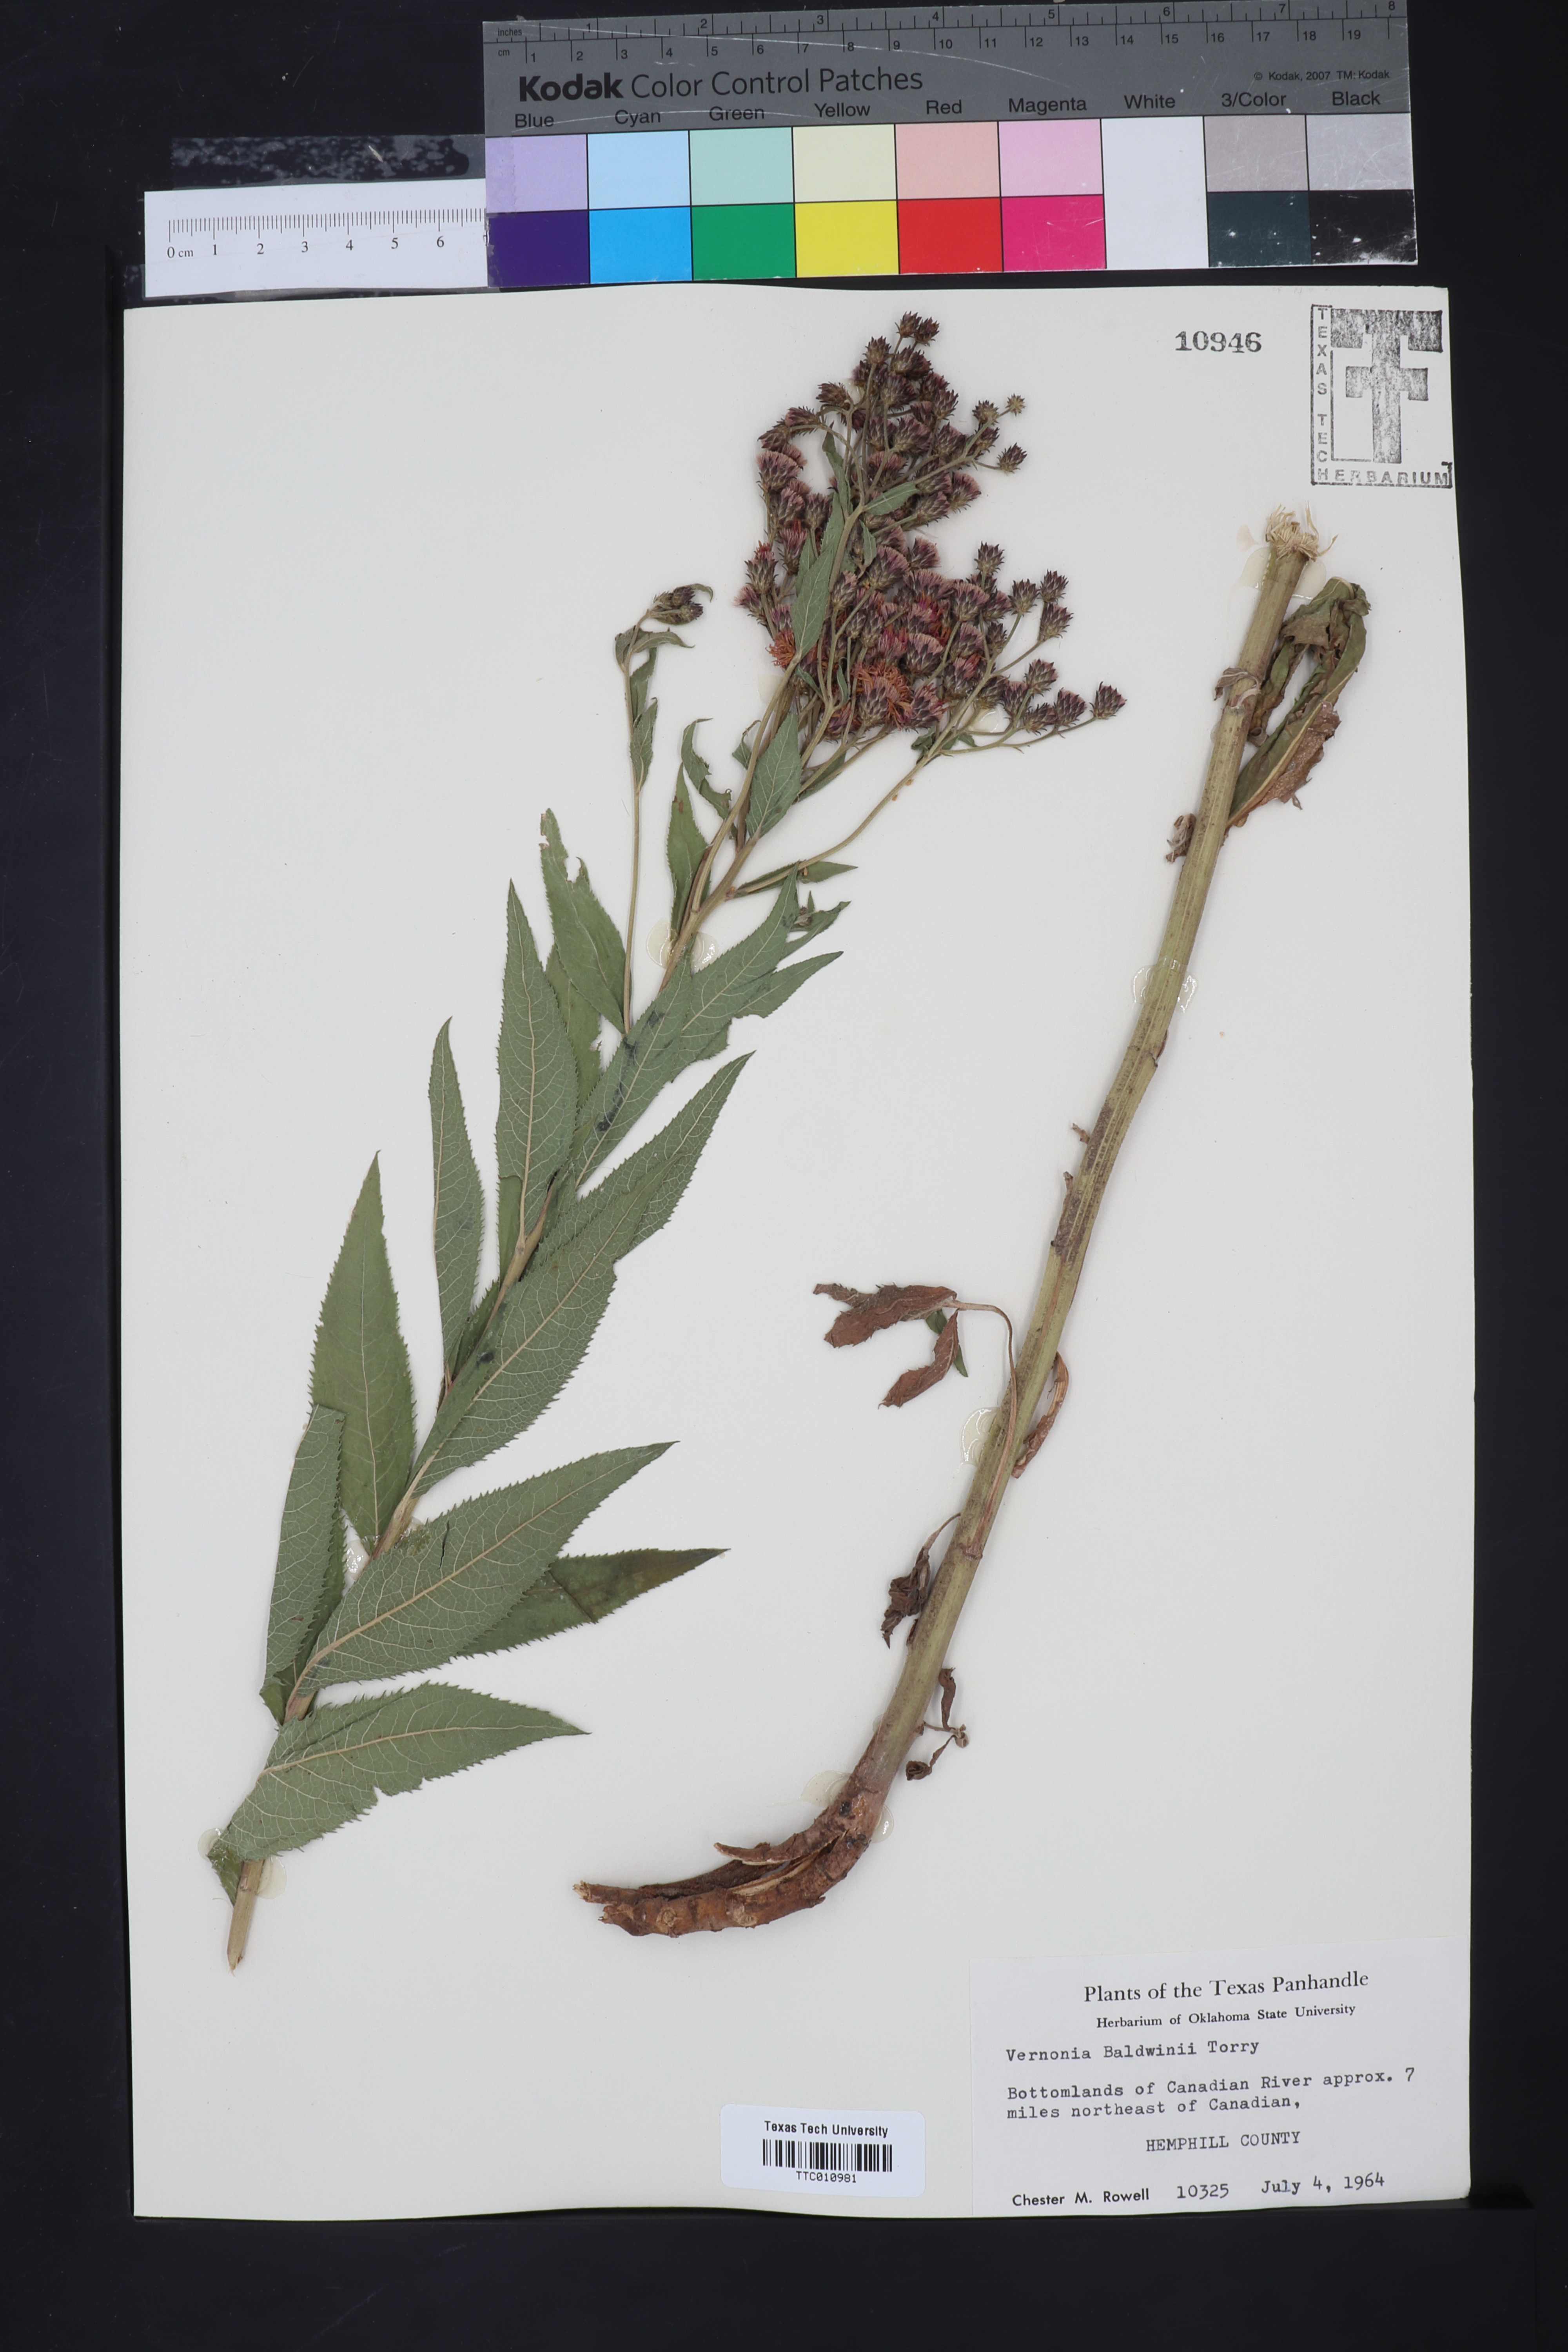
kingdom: Plantae
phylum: Tracheophyta
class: Magnoliopsida
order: Asterales
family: Asteraceae
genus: Vernonia
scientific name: Vernonia baldwinii
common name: Western ironweed
